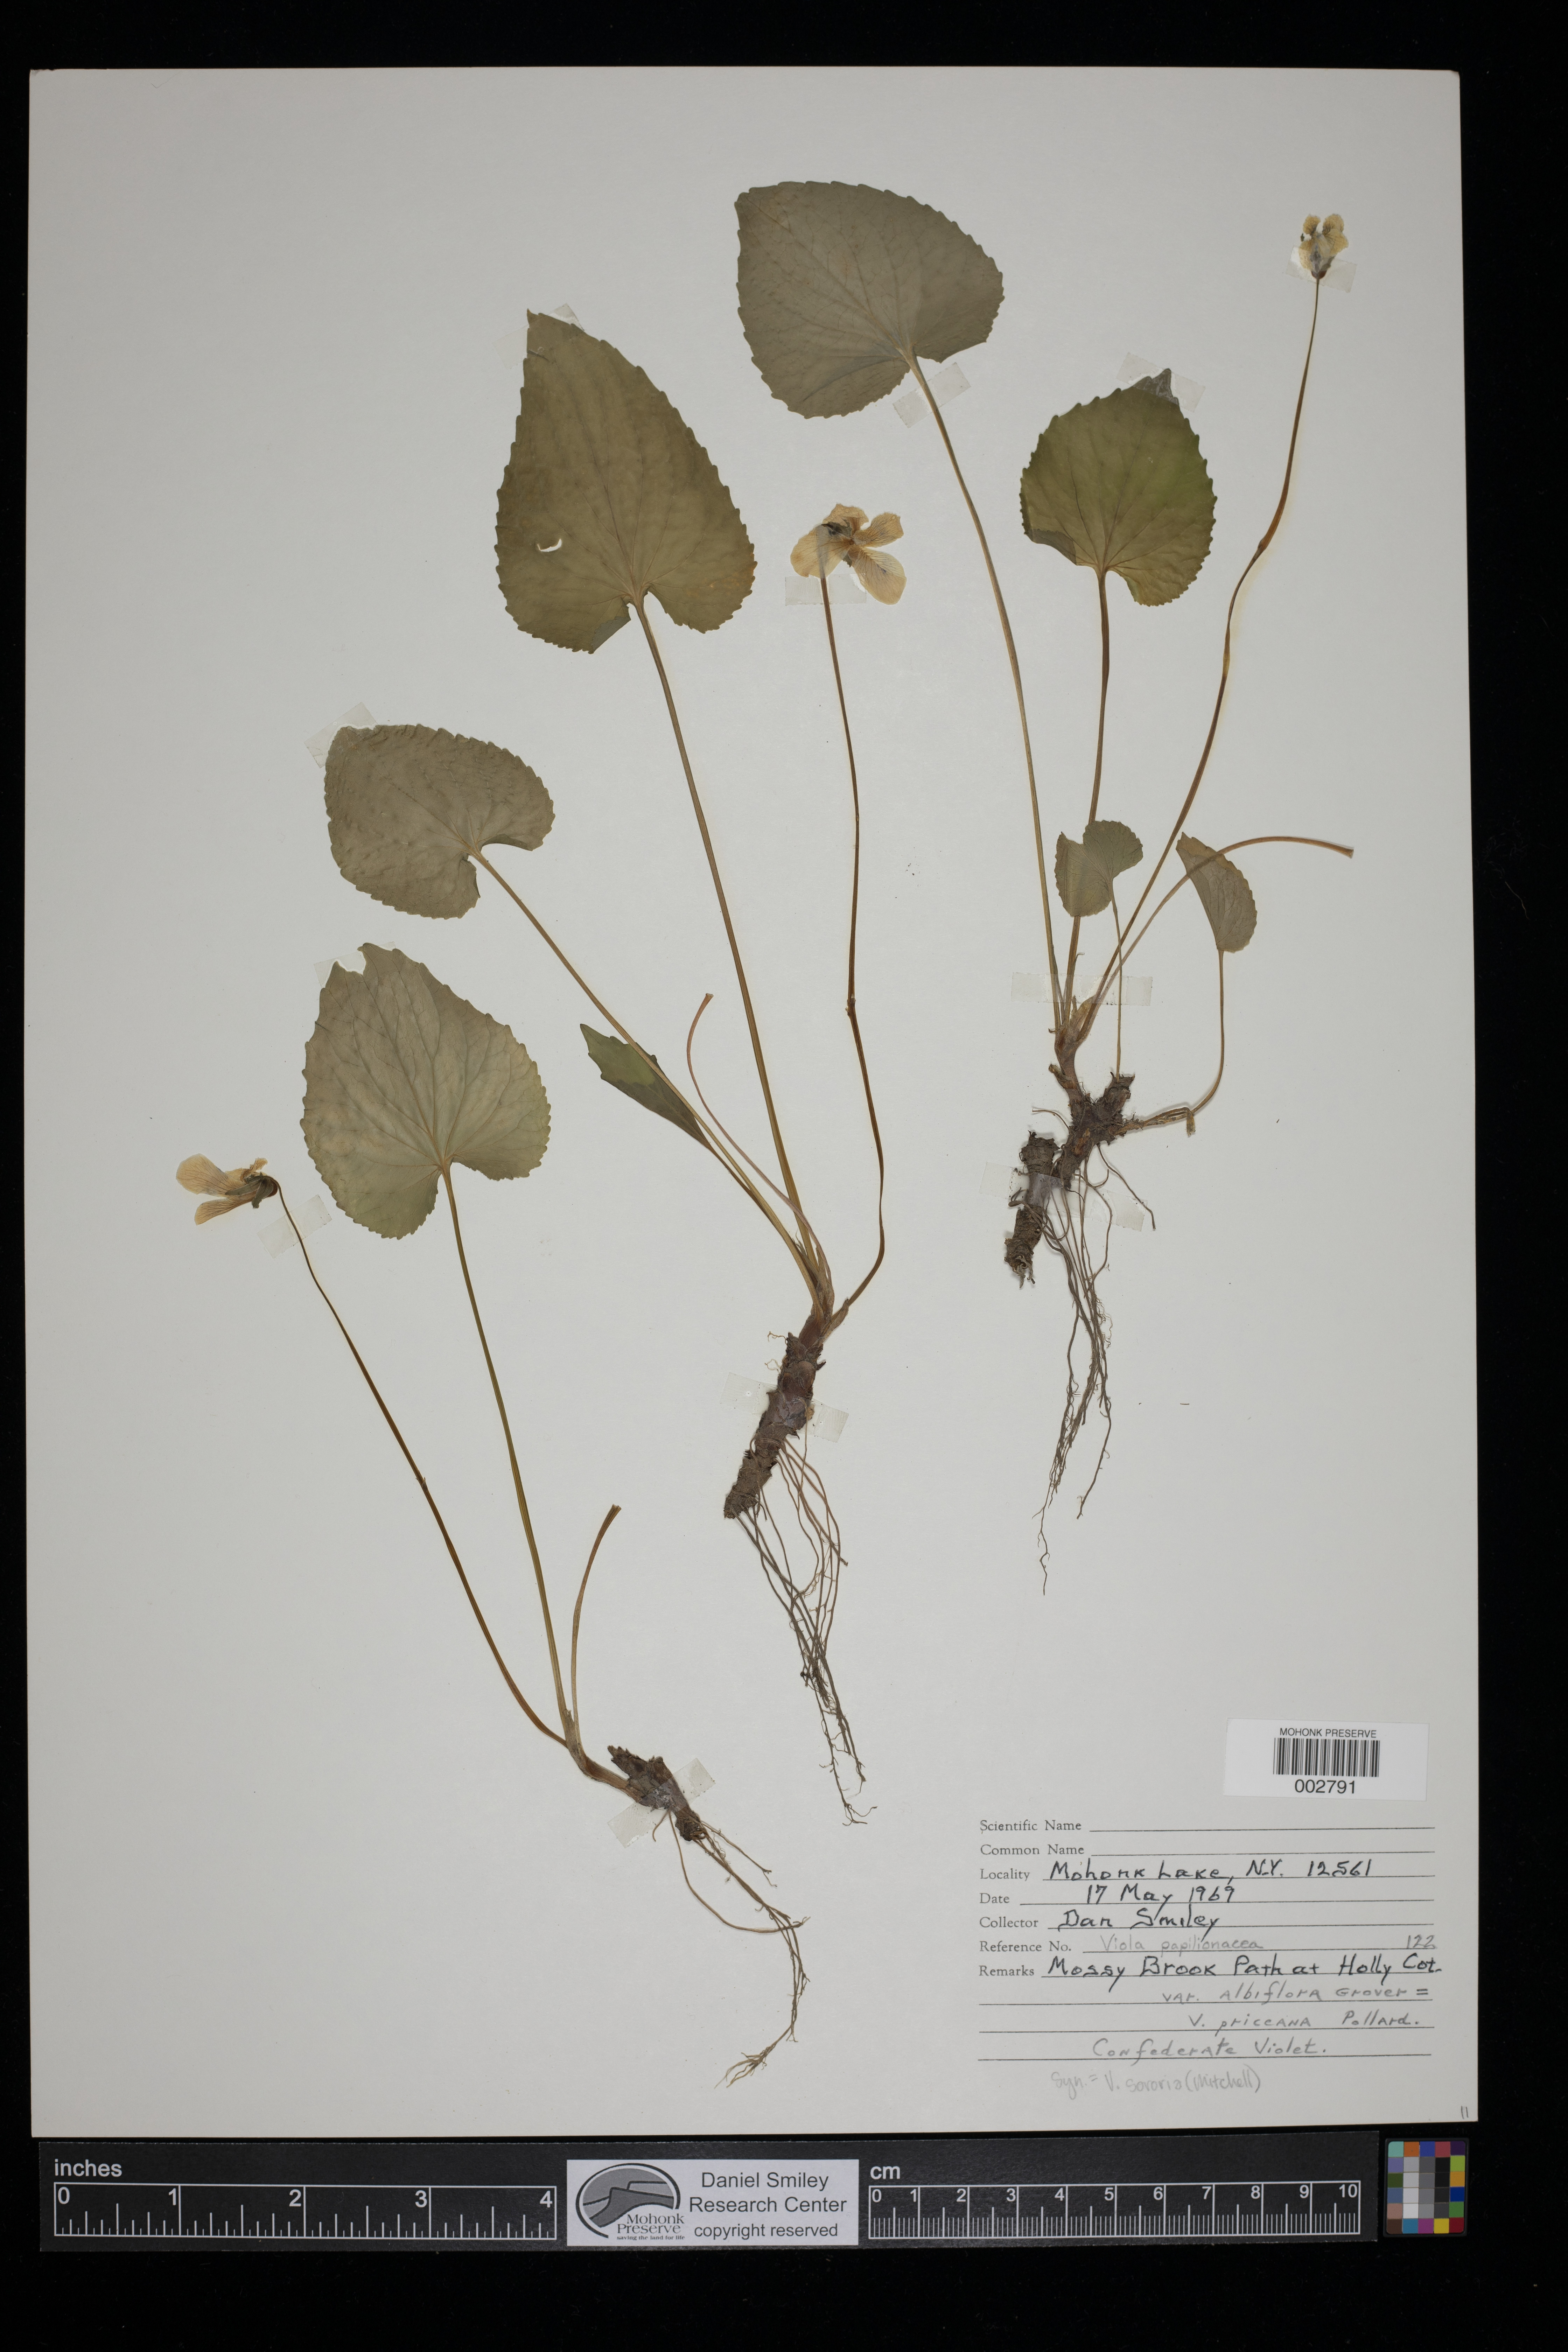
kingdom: Plantae
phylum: Tracheophyta
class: Magnoliopsida
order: Malpighiales
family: Violaceae
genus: Viola
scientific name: Viola sororia
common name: Dooryard violet
